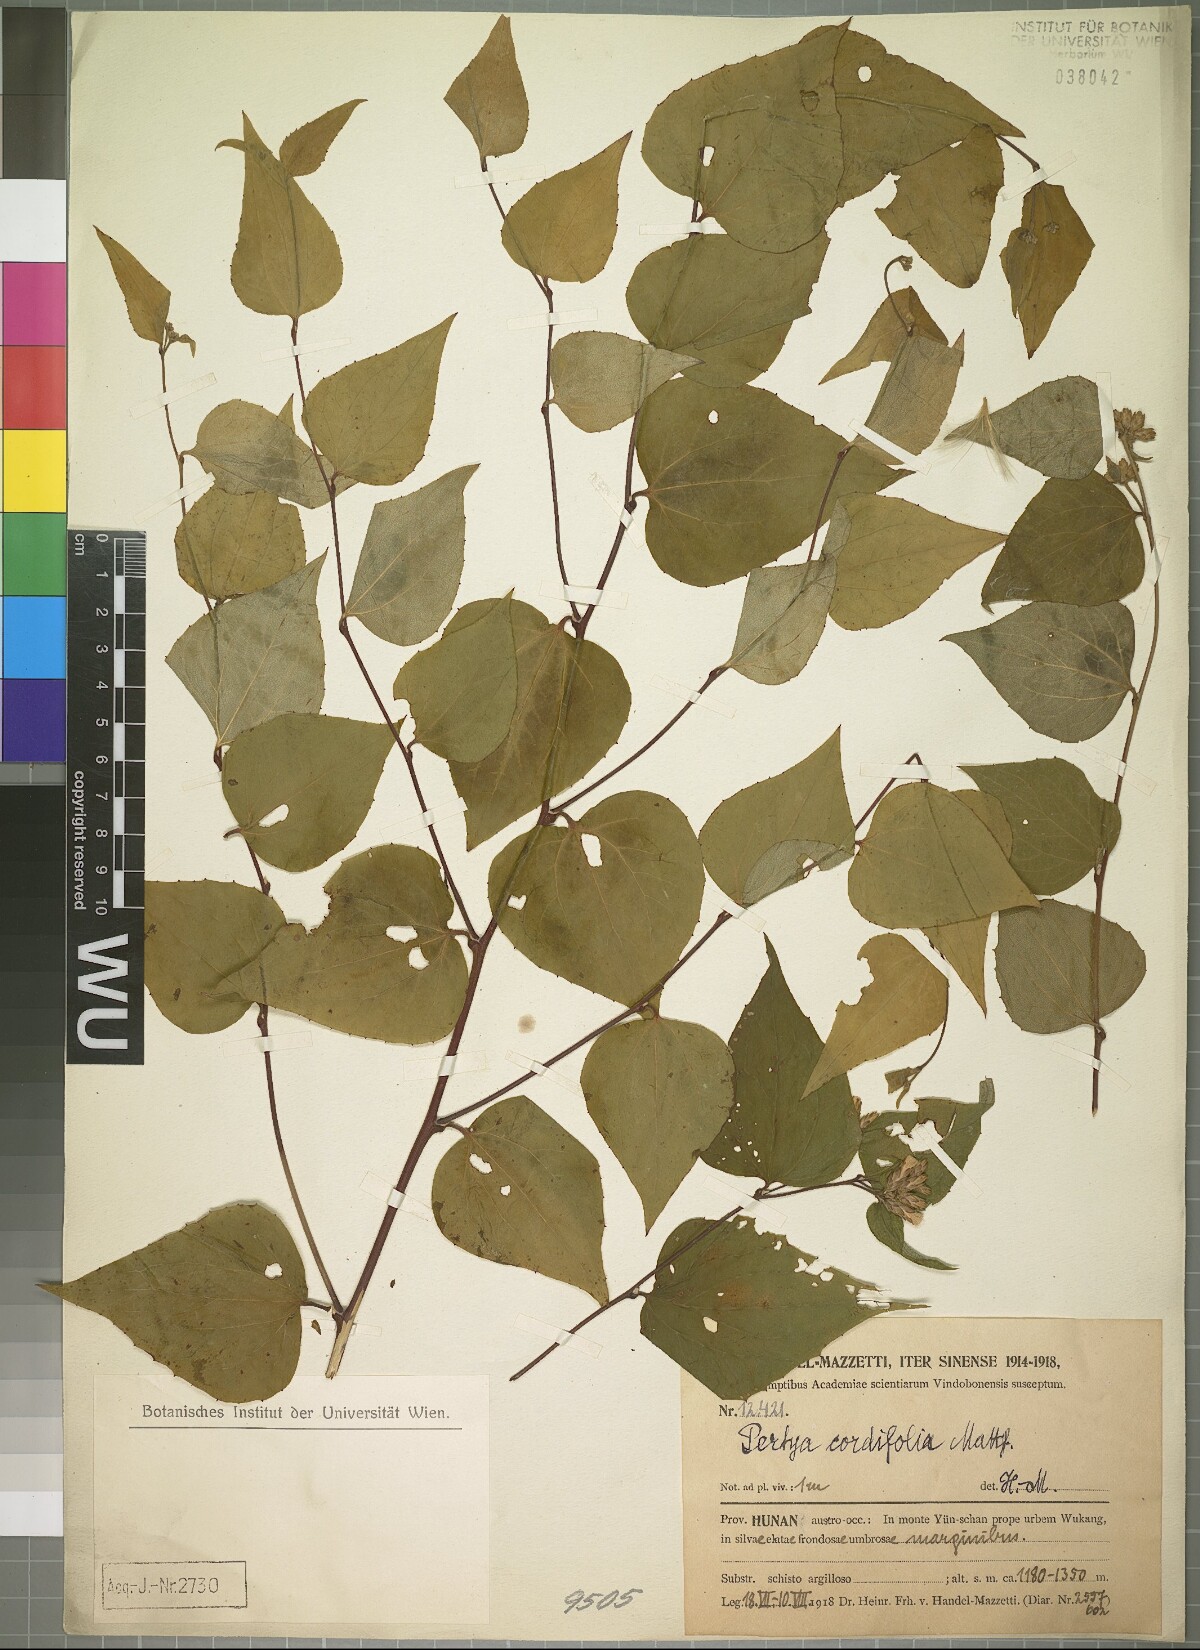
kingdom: Plantae
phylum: Tracheophyta
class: Magnoliopsida
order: Asterales
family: Asteraceae
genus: Pertya
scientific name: Pertya cordifolia
